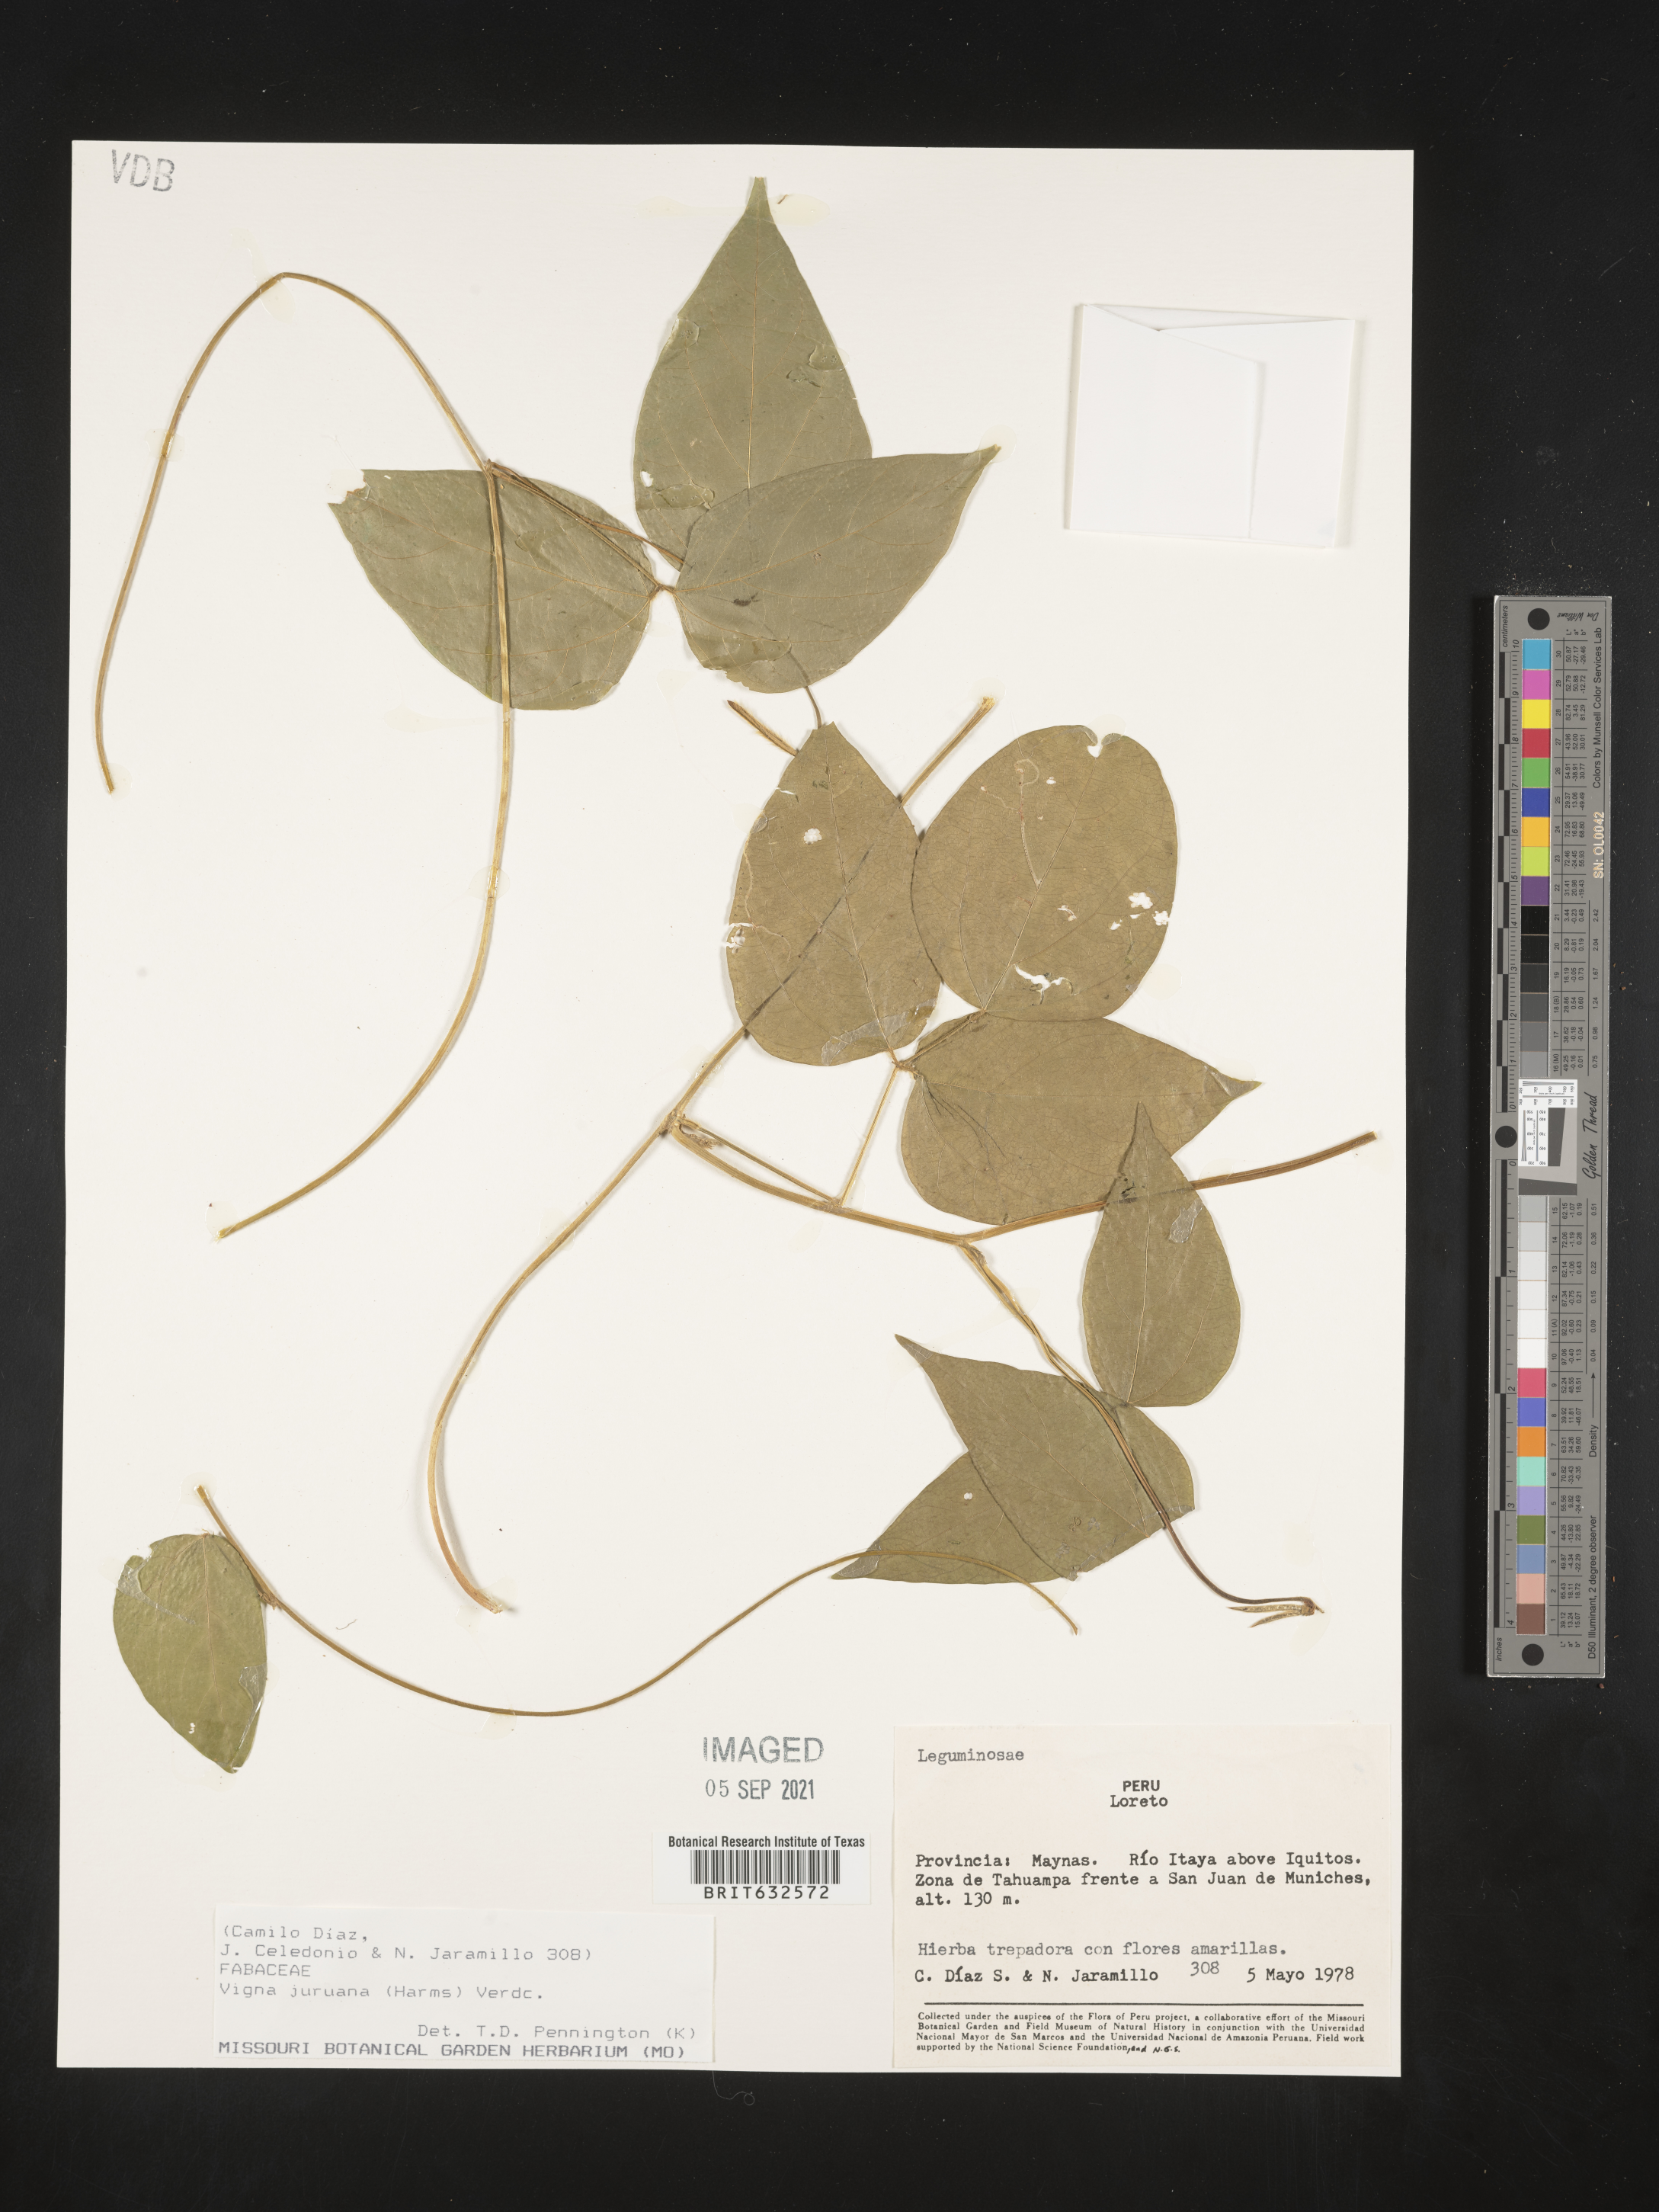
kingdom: Plantae
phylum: Tracheophyta
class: Magnoliopsida
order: Fabales
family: Fabaceae
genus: Vigna
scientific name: Vigna
